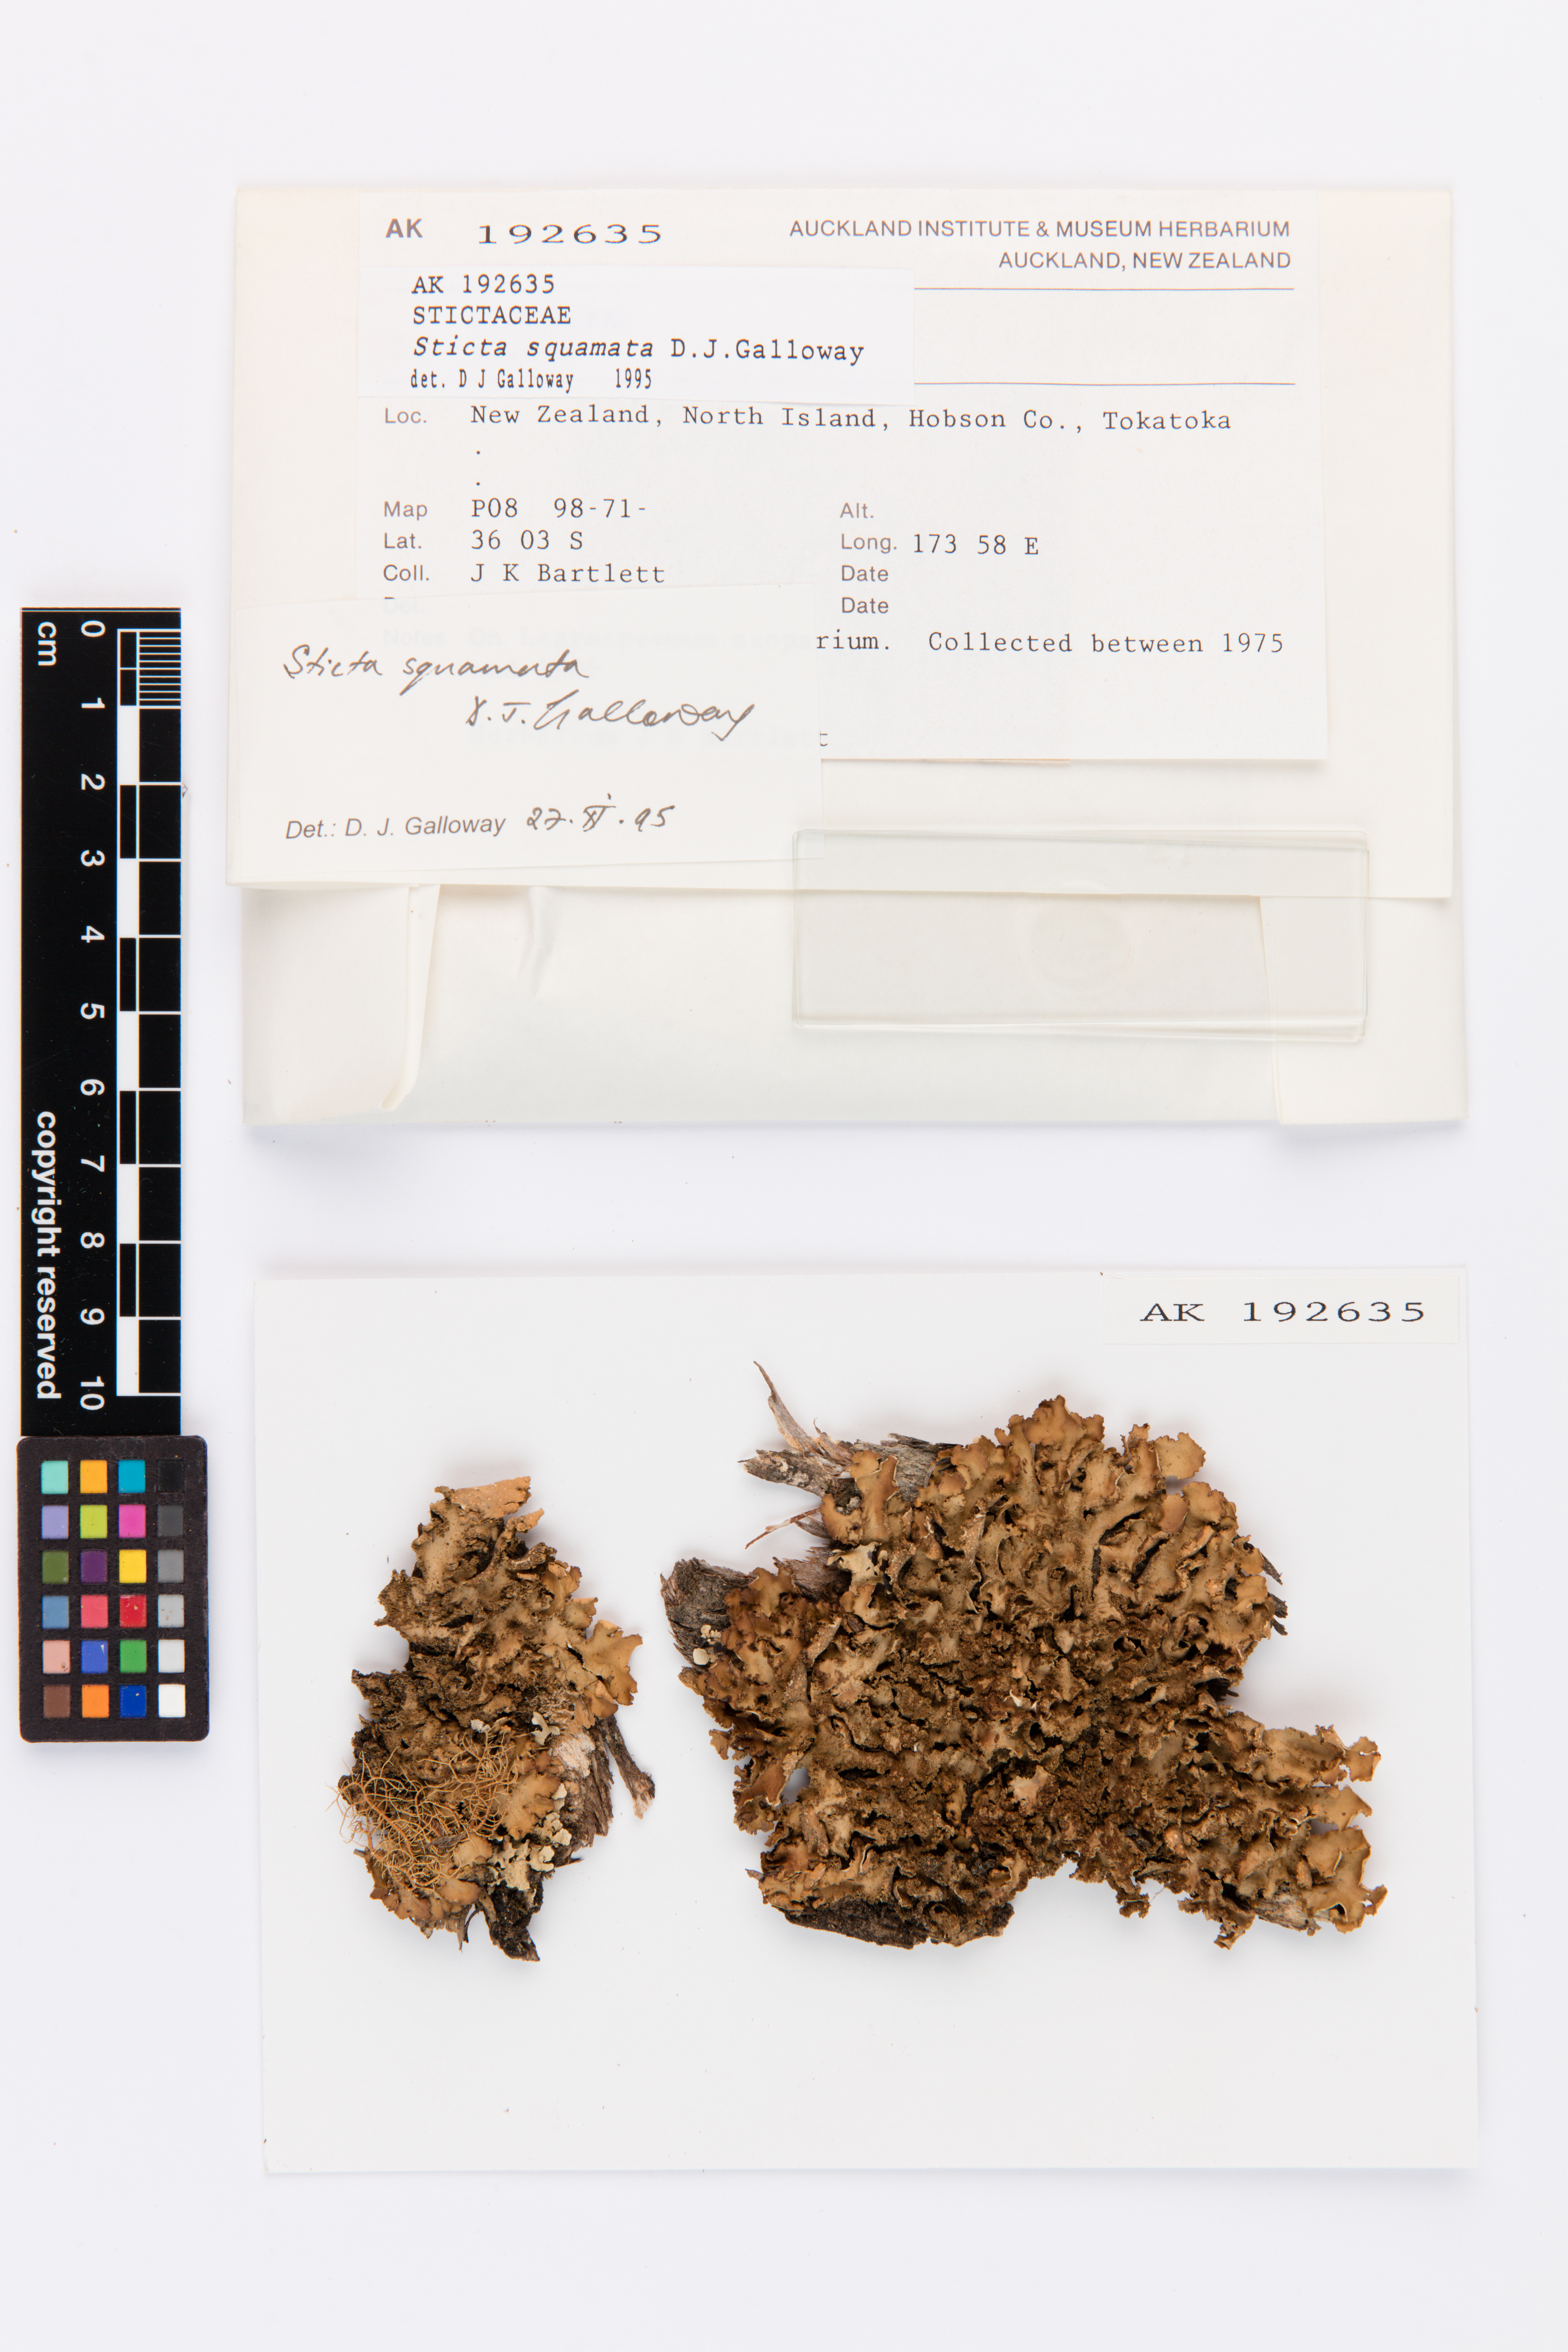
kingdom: Fungi
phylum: Ascomycota
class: Lecanoromycetes
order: Peltigerales
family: Lobariaceae
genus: Sticta
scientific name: Sticta squamata
